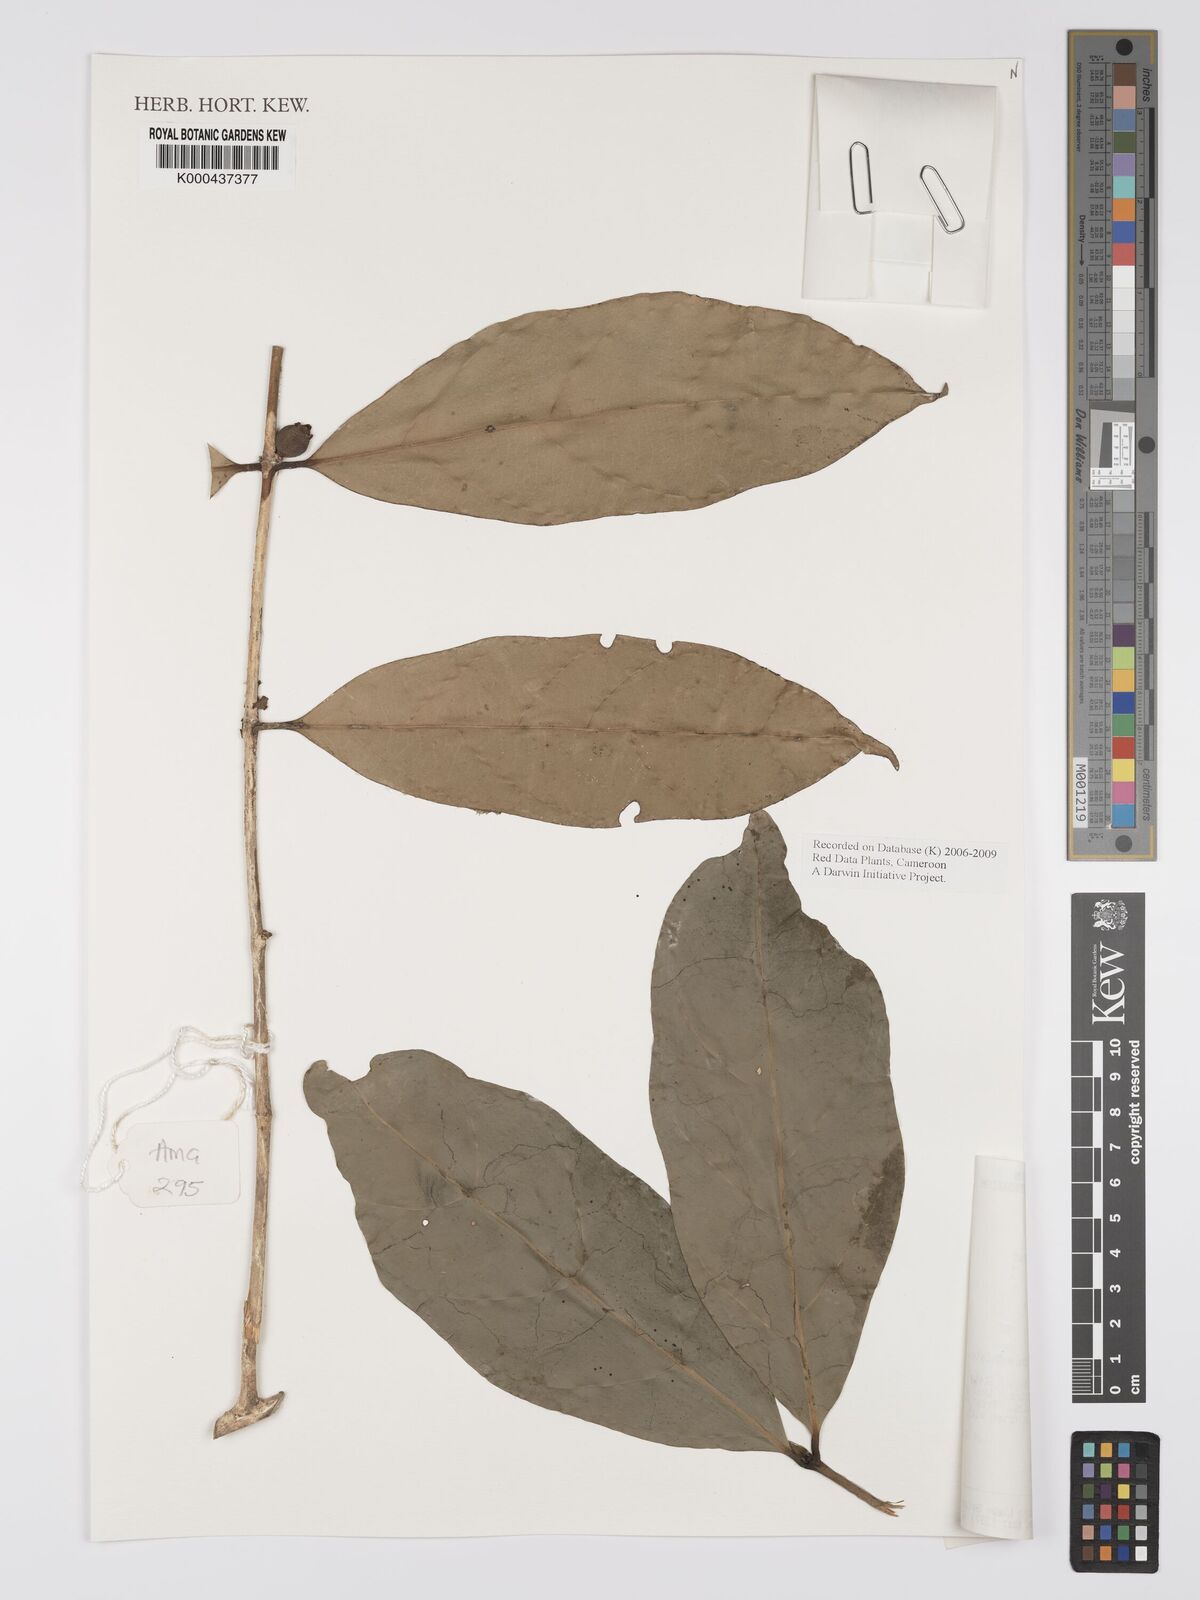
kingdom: Plantae
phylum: Tracheophyta
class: Magnoliopsida
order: Gentianales
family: Rubiaceae
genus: Belonophora
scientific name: Belonophora coriacea
